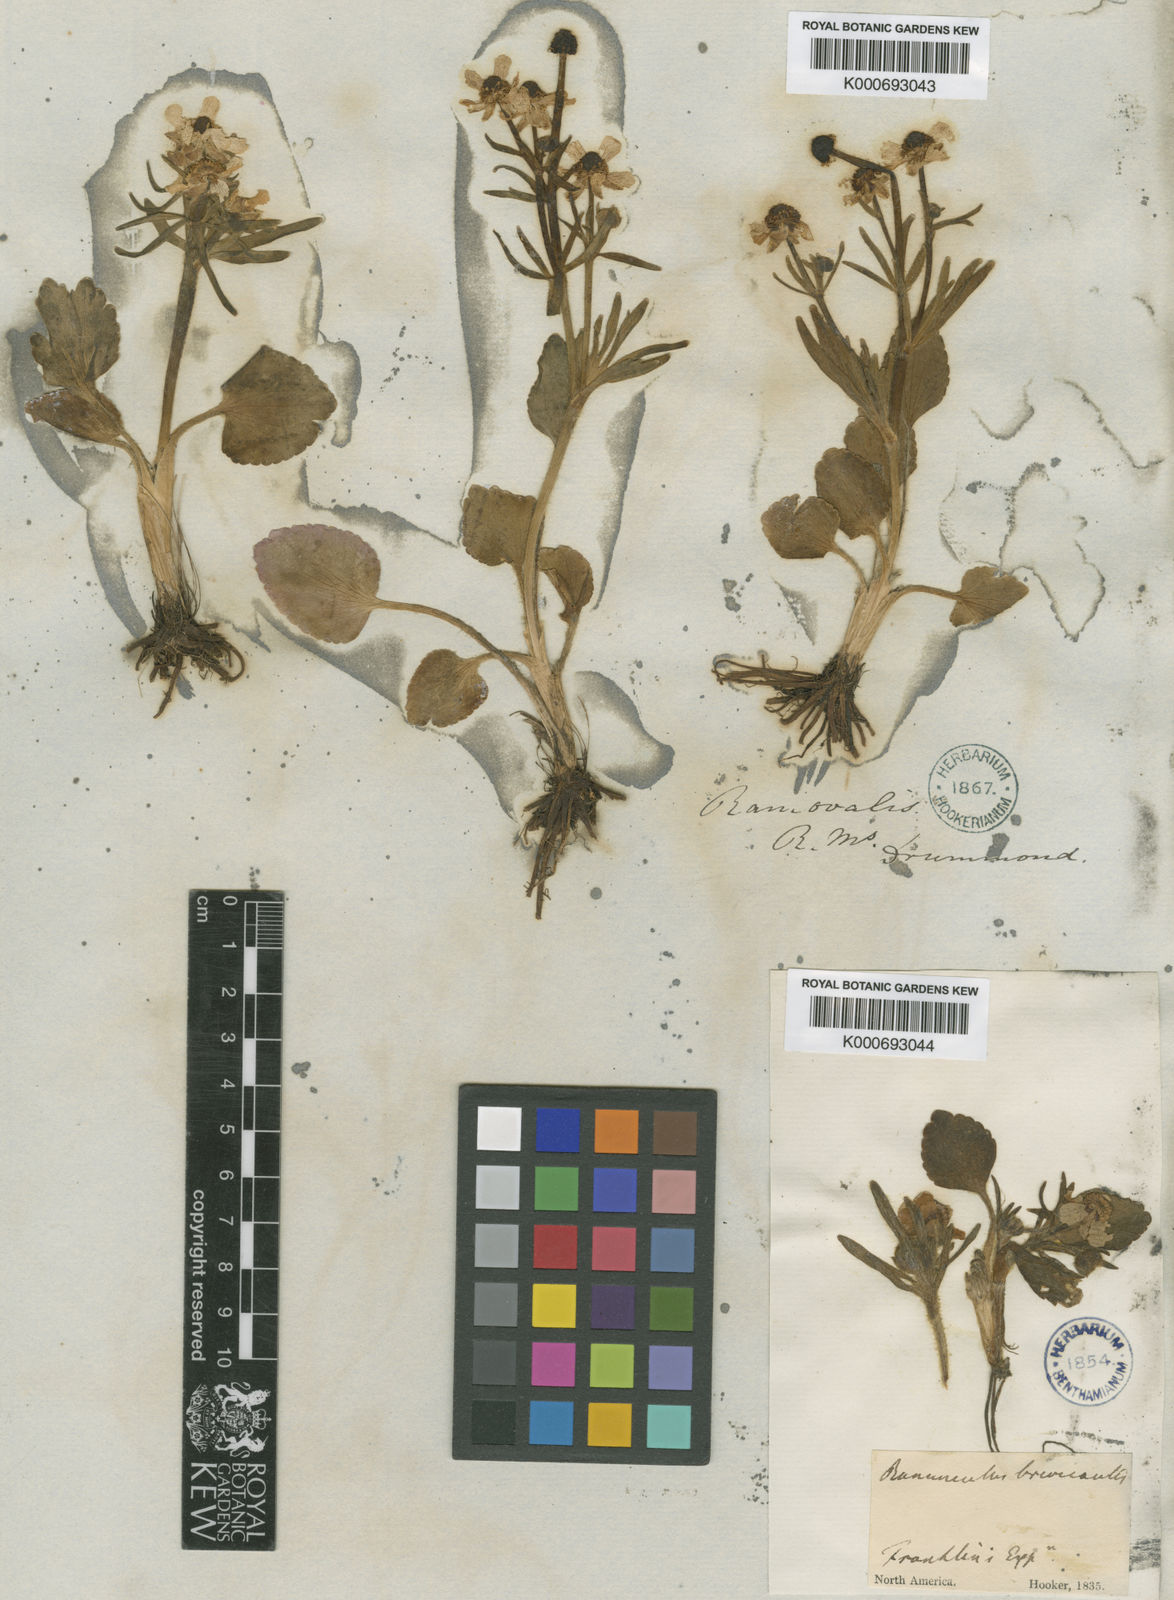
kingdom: Plantae
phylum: Tracheophyta
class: Magnoliopsida
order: Ranunculales
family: Ranunculaceae
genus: Ranunculus
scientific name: Ranunculus cardiophyllus
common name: Heart-leaved buttercup
